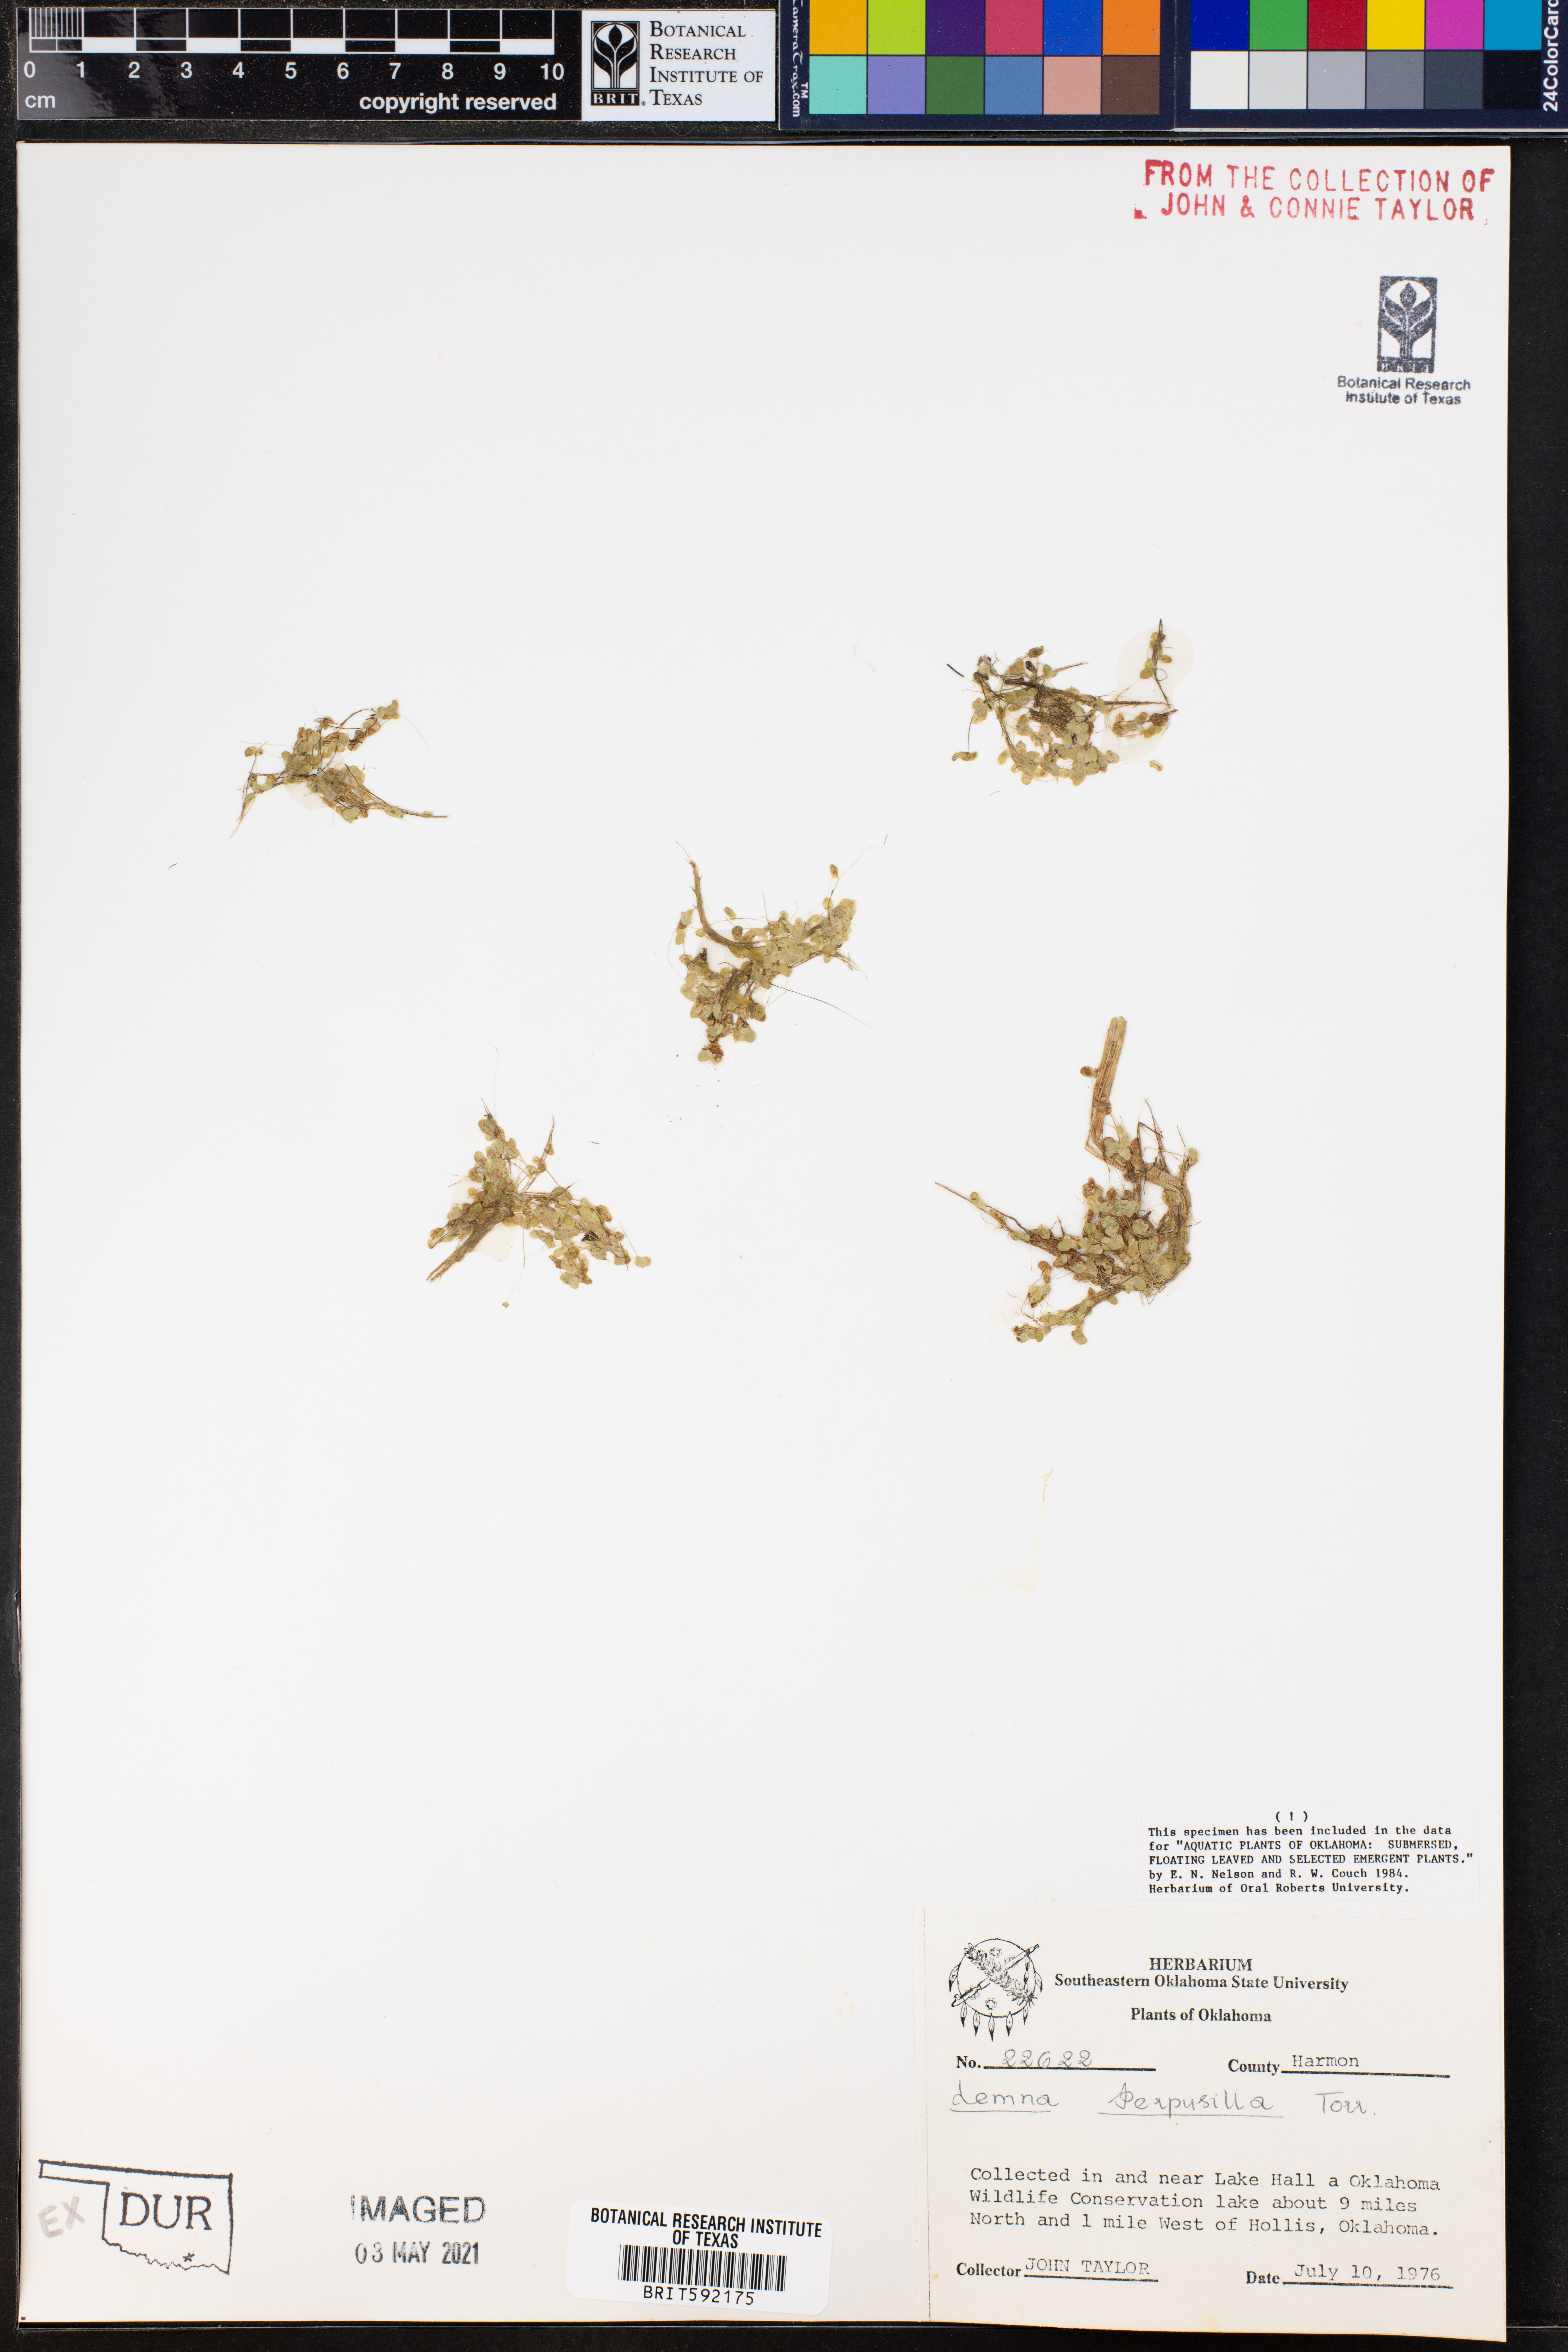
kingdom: Plantae
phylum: Tracheophyta
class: Liliopsida
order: Alismatales
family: Araceae
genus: Lemna
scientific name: Lemna perpusilla
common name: Duckweed
